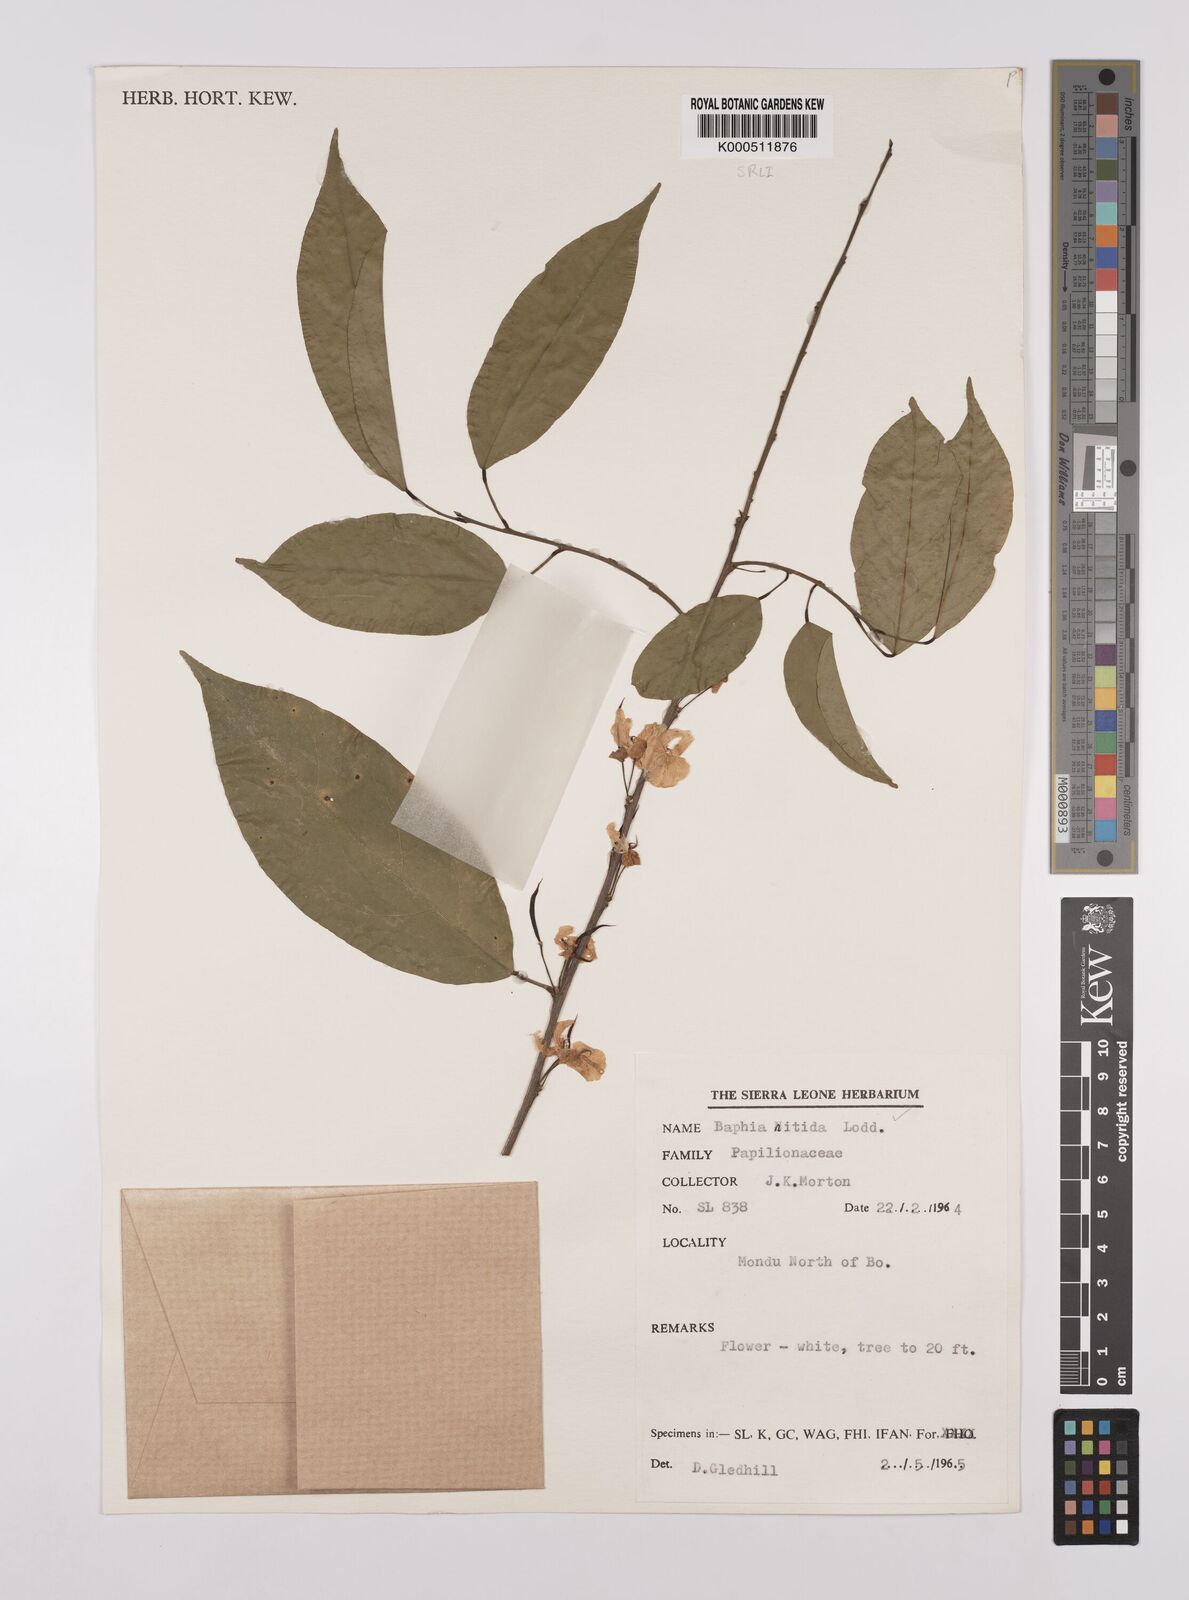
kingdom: Plantae
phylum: Tracheophyta
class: Magnoliopsida
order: Fabales
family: Fabaceae
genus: Baphia
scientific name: Baphia nitida
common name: Camwood
